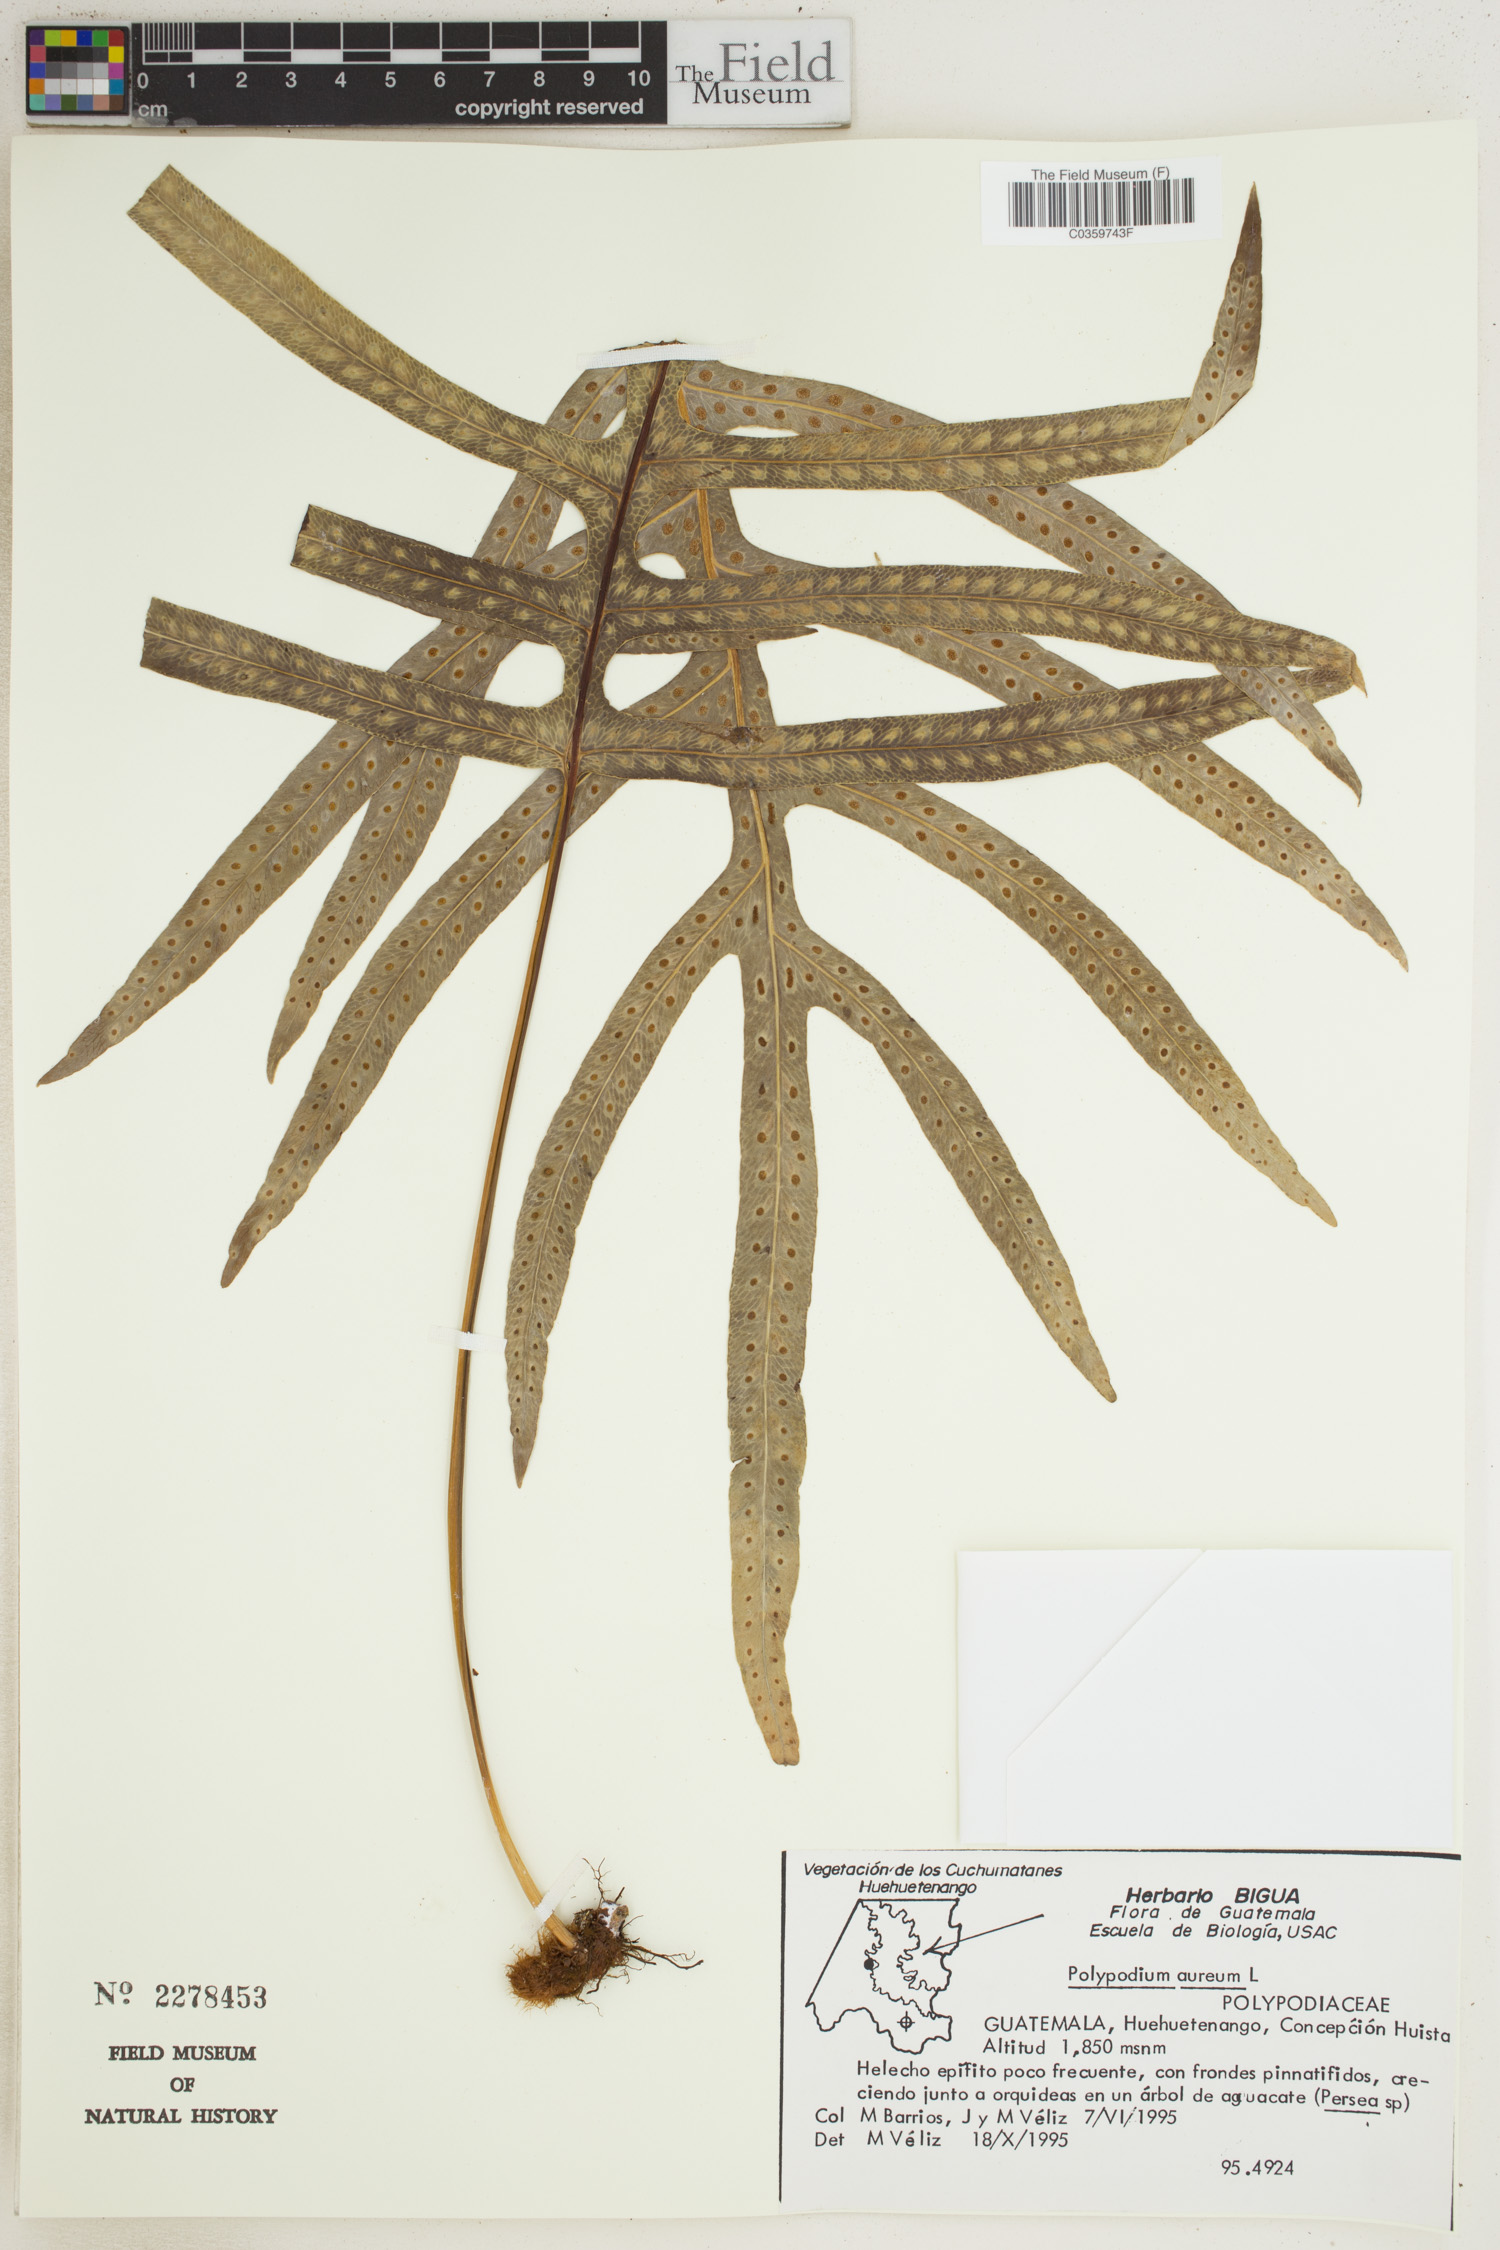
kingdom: Plantae
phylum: Tracheophyta
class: Polypodiopsida
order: Polypodiales
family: Polypodiaceae
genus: Phlebodium
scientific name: Phlebodium aureum
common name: Gold-foot fern
